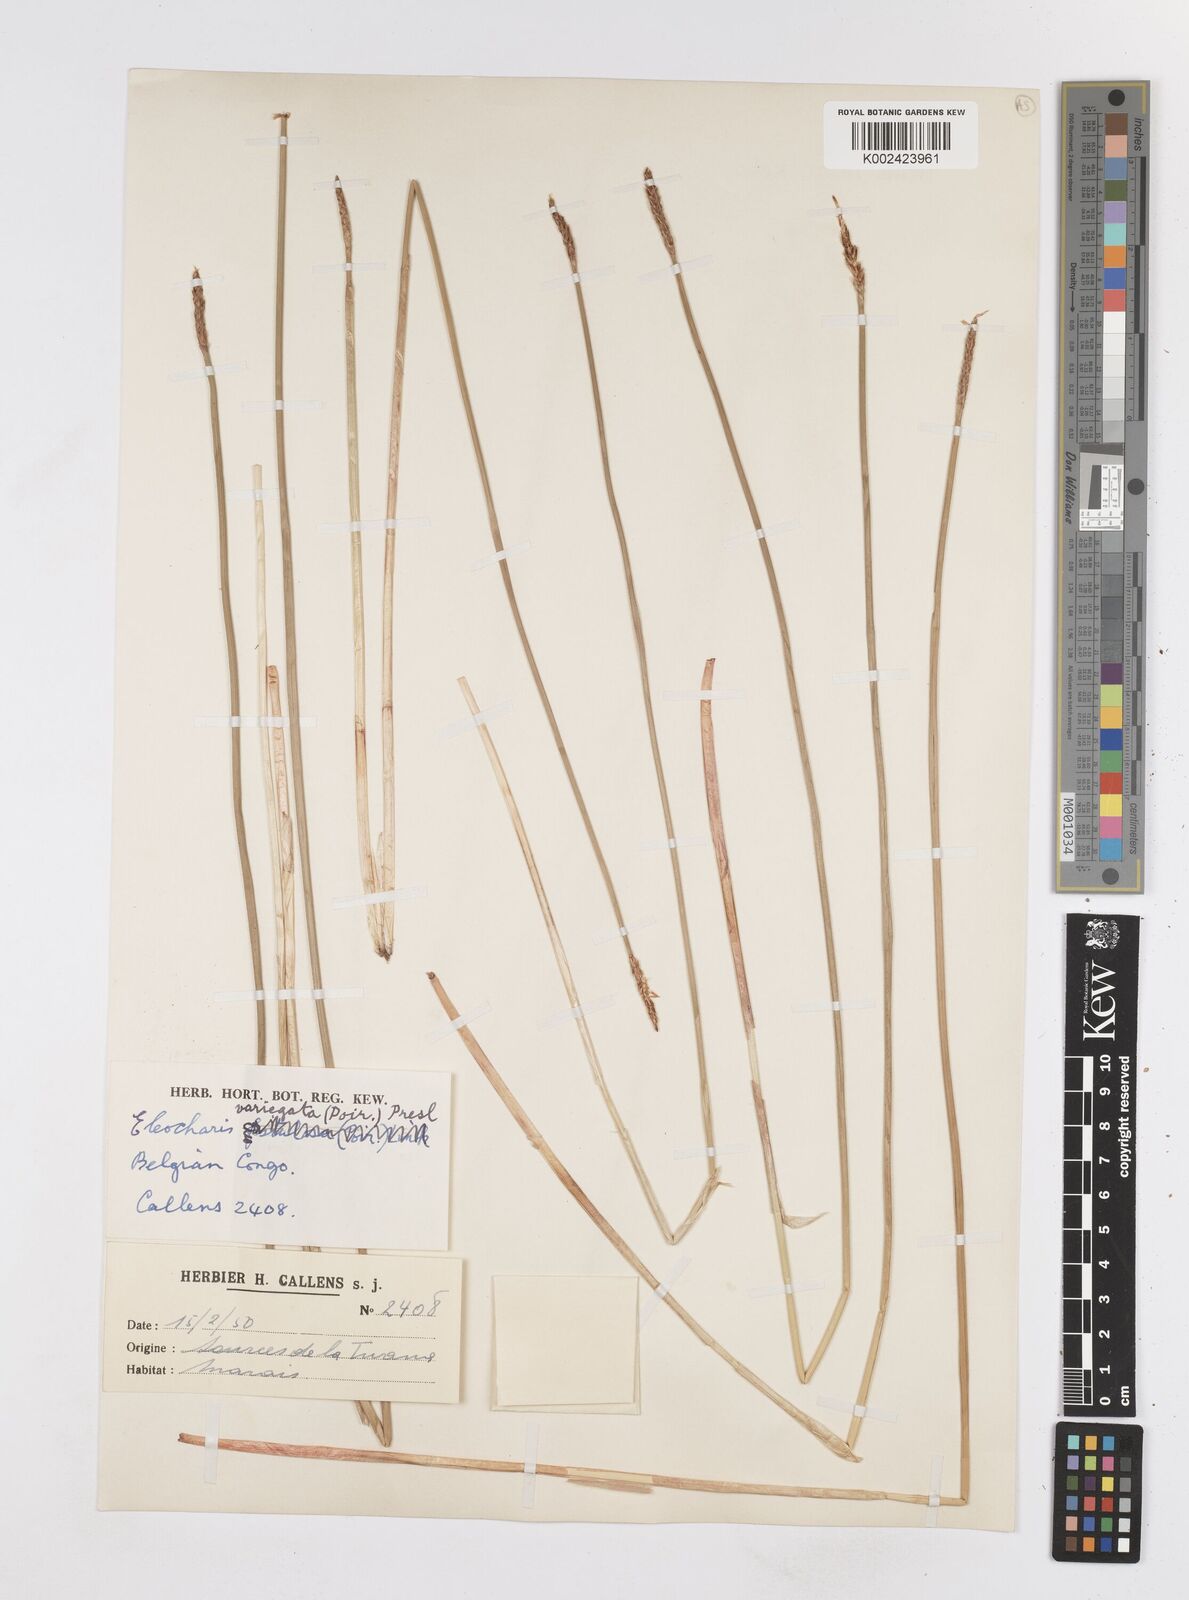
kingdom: Plantae
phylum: Tracheophyta
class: Liliopsida
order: Poales
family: Cyperaceae
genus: Eleocharis
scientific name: Eleocharis variegata
